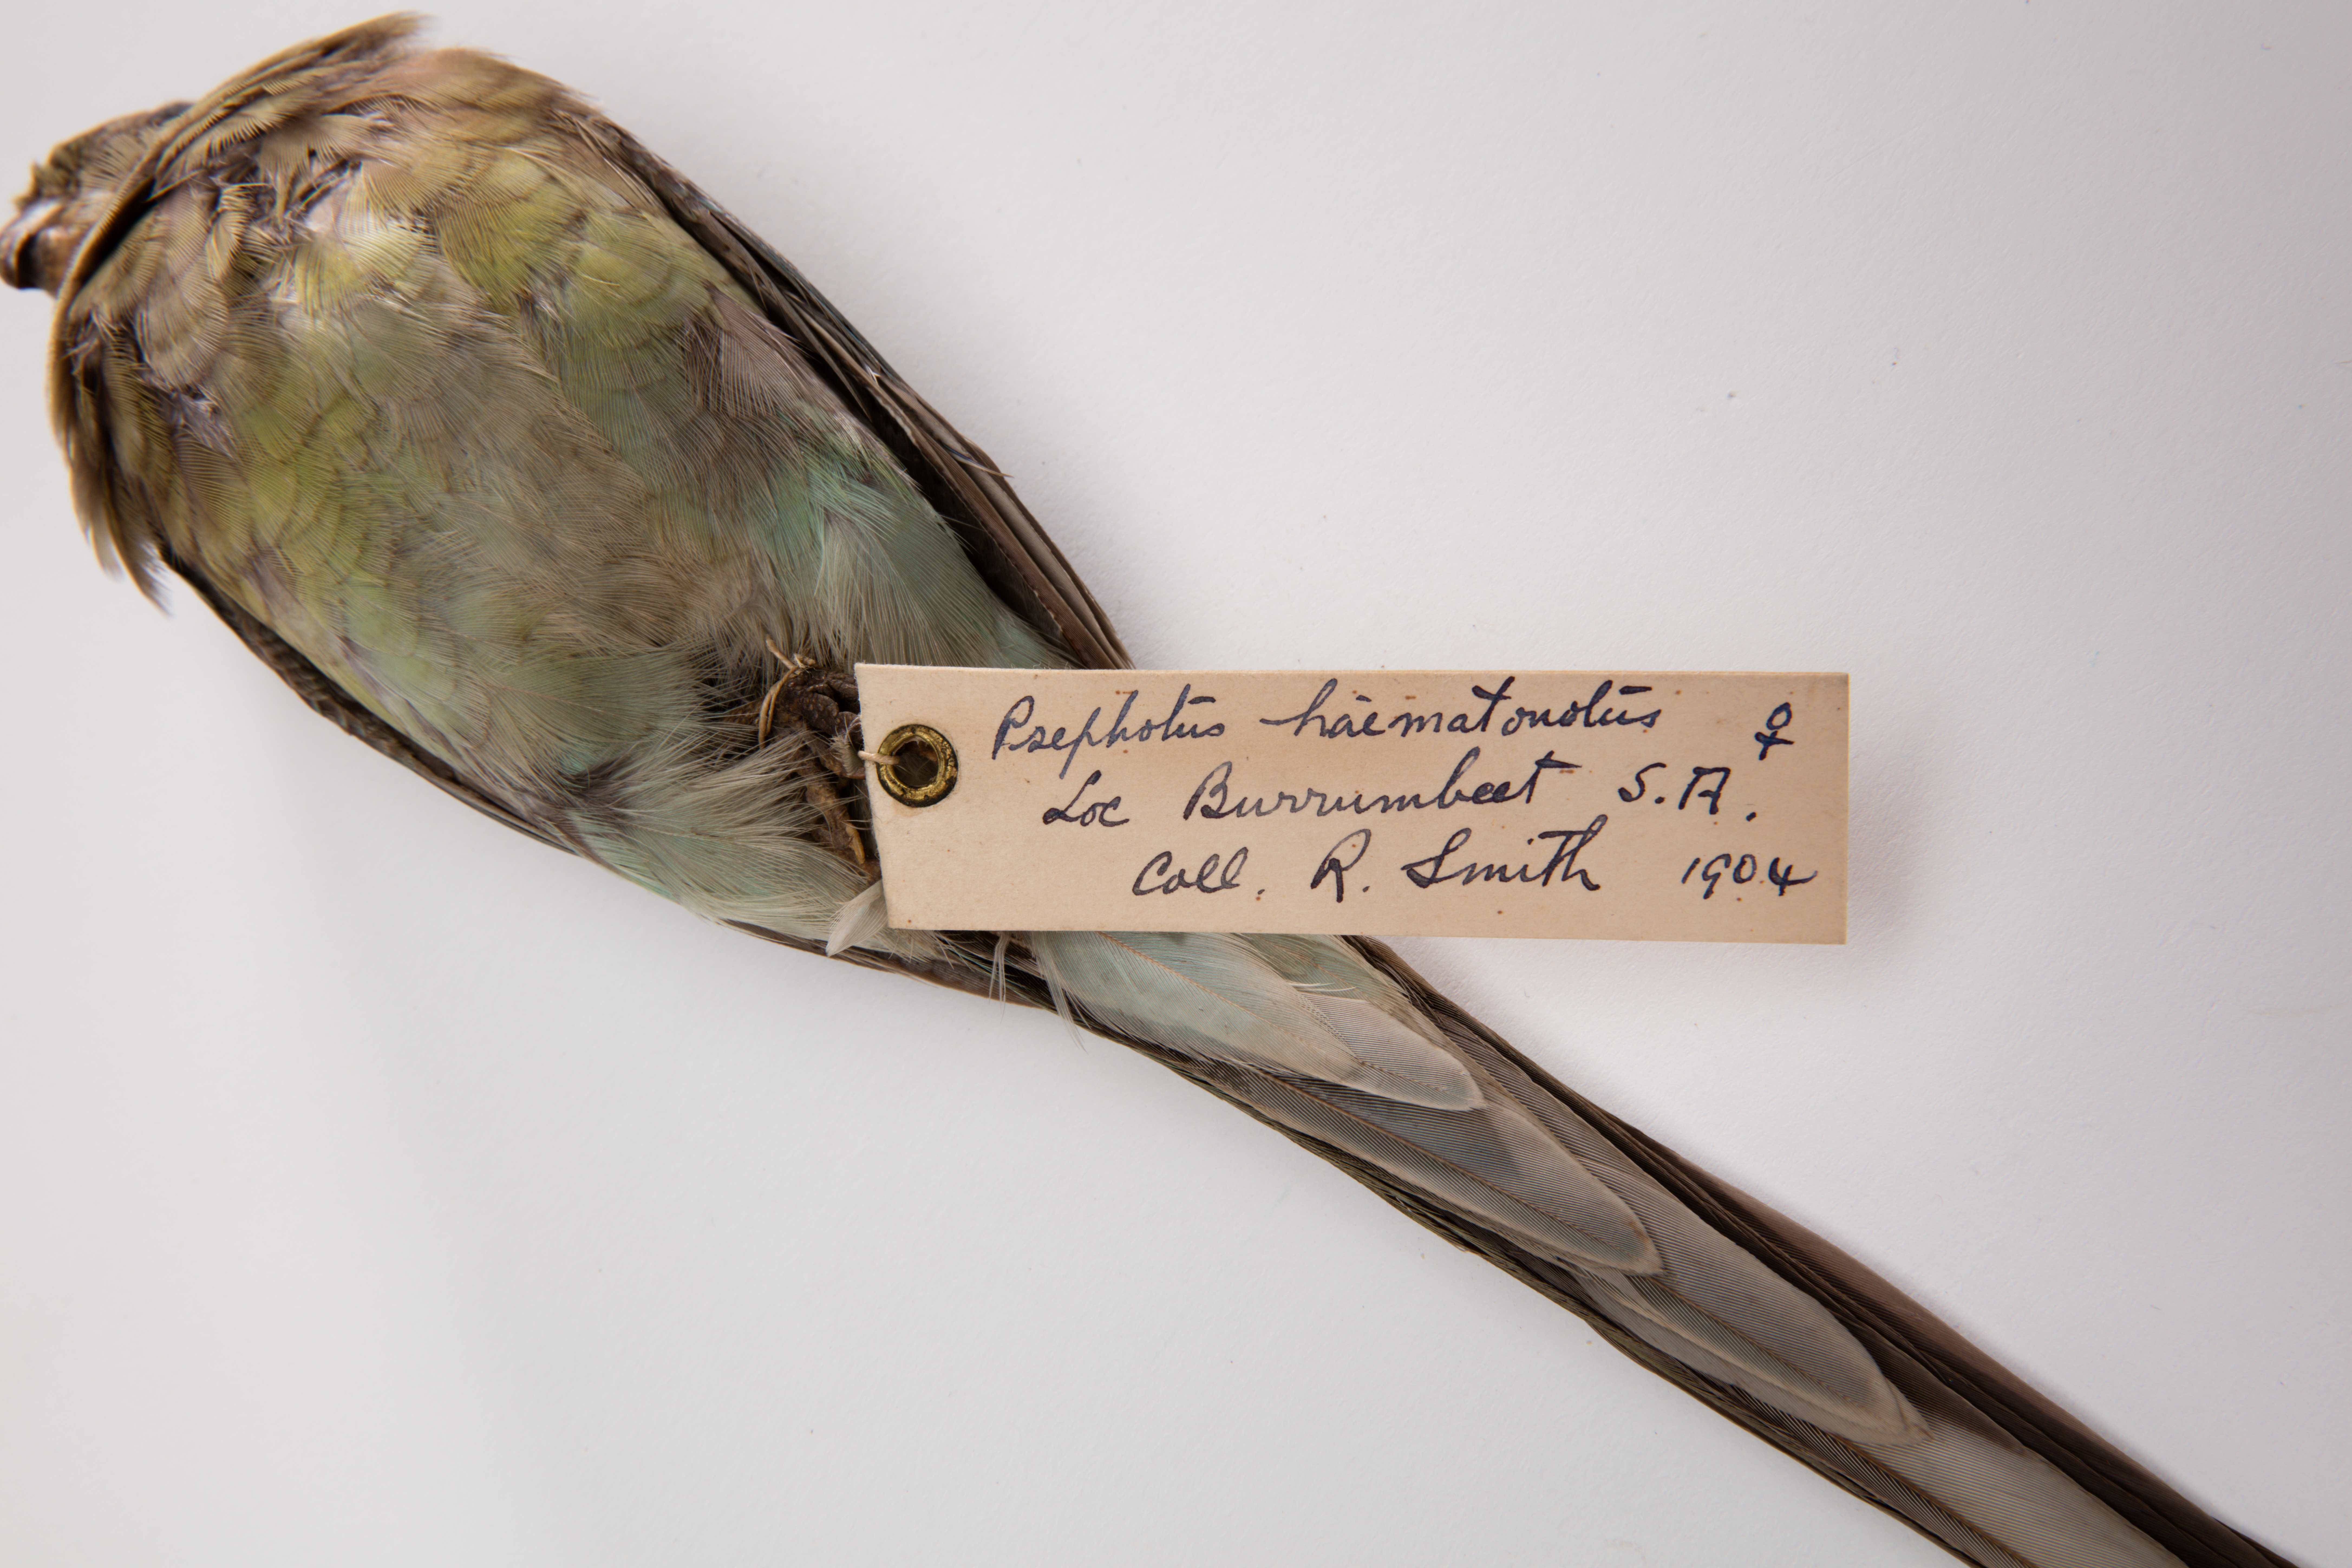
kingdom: Animalia
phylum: Chordata
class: Aves
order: Psittaciformes
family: Psittacidae
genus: Psephotus
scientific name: Psephotus haematonotus
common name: Red-rumped parrot
